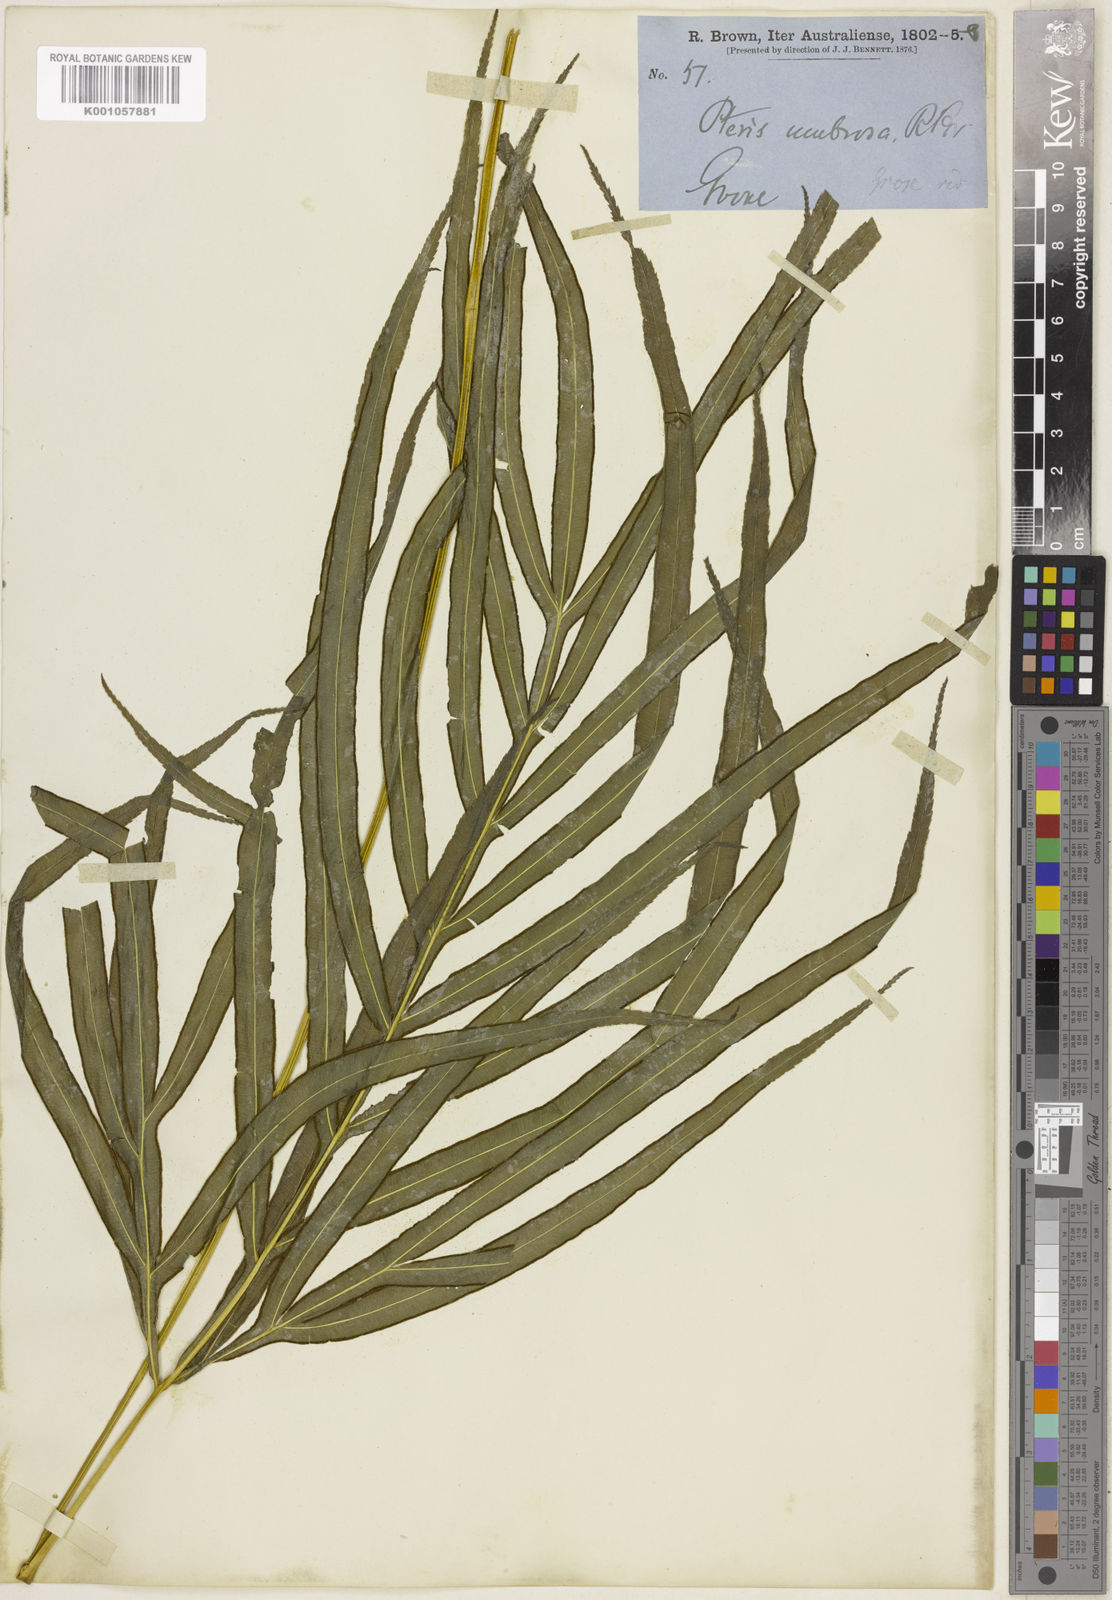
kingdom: Plantae
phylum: Tracheophyta
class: Polypodiopsida
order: Polypodiales
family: Pteridaceae
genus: Pteris
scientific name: Pteris umbrosa
